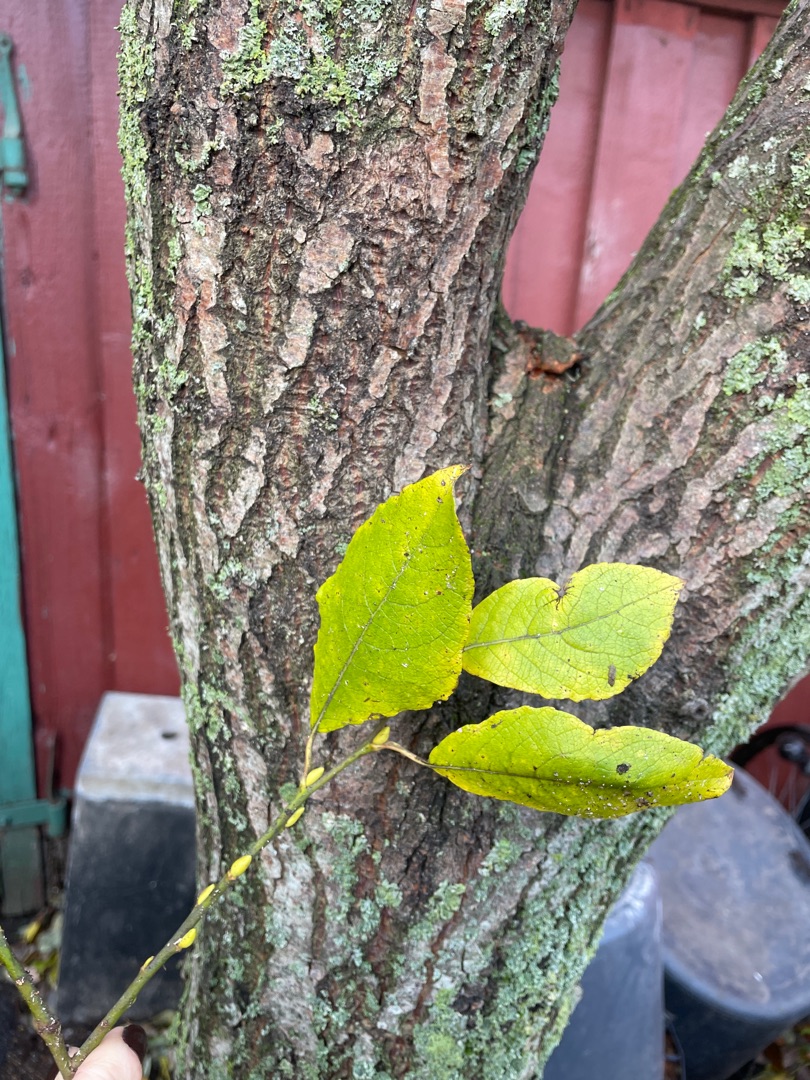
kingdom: Plantae
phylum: Tracheophyta
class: Magnoliopsida
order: Malpighiales
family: Salicaceae
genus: Salix
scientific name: Salix caprea
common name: Selje-pil
